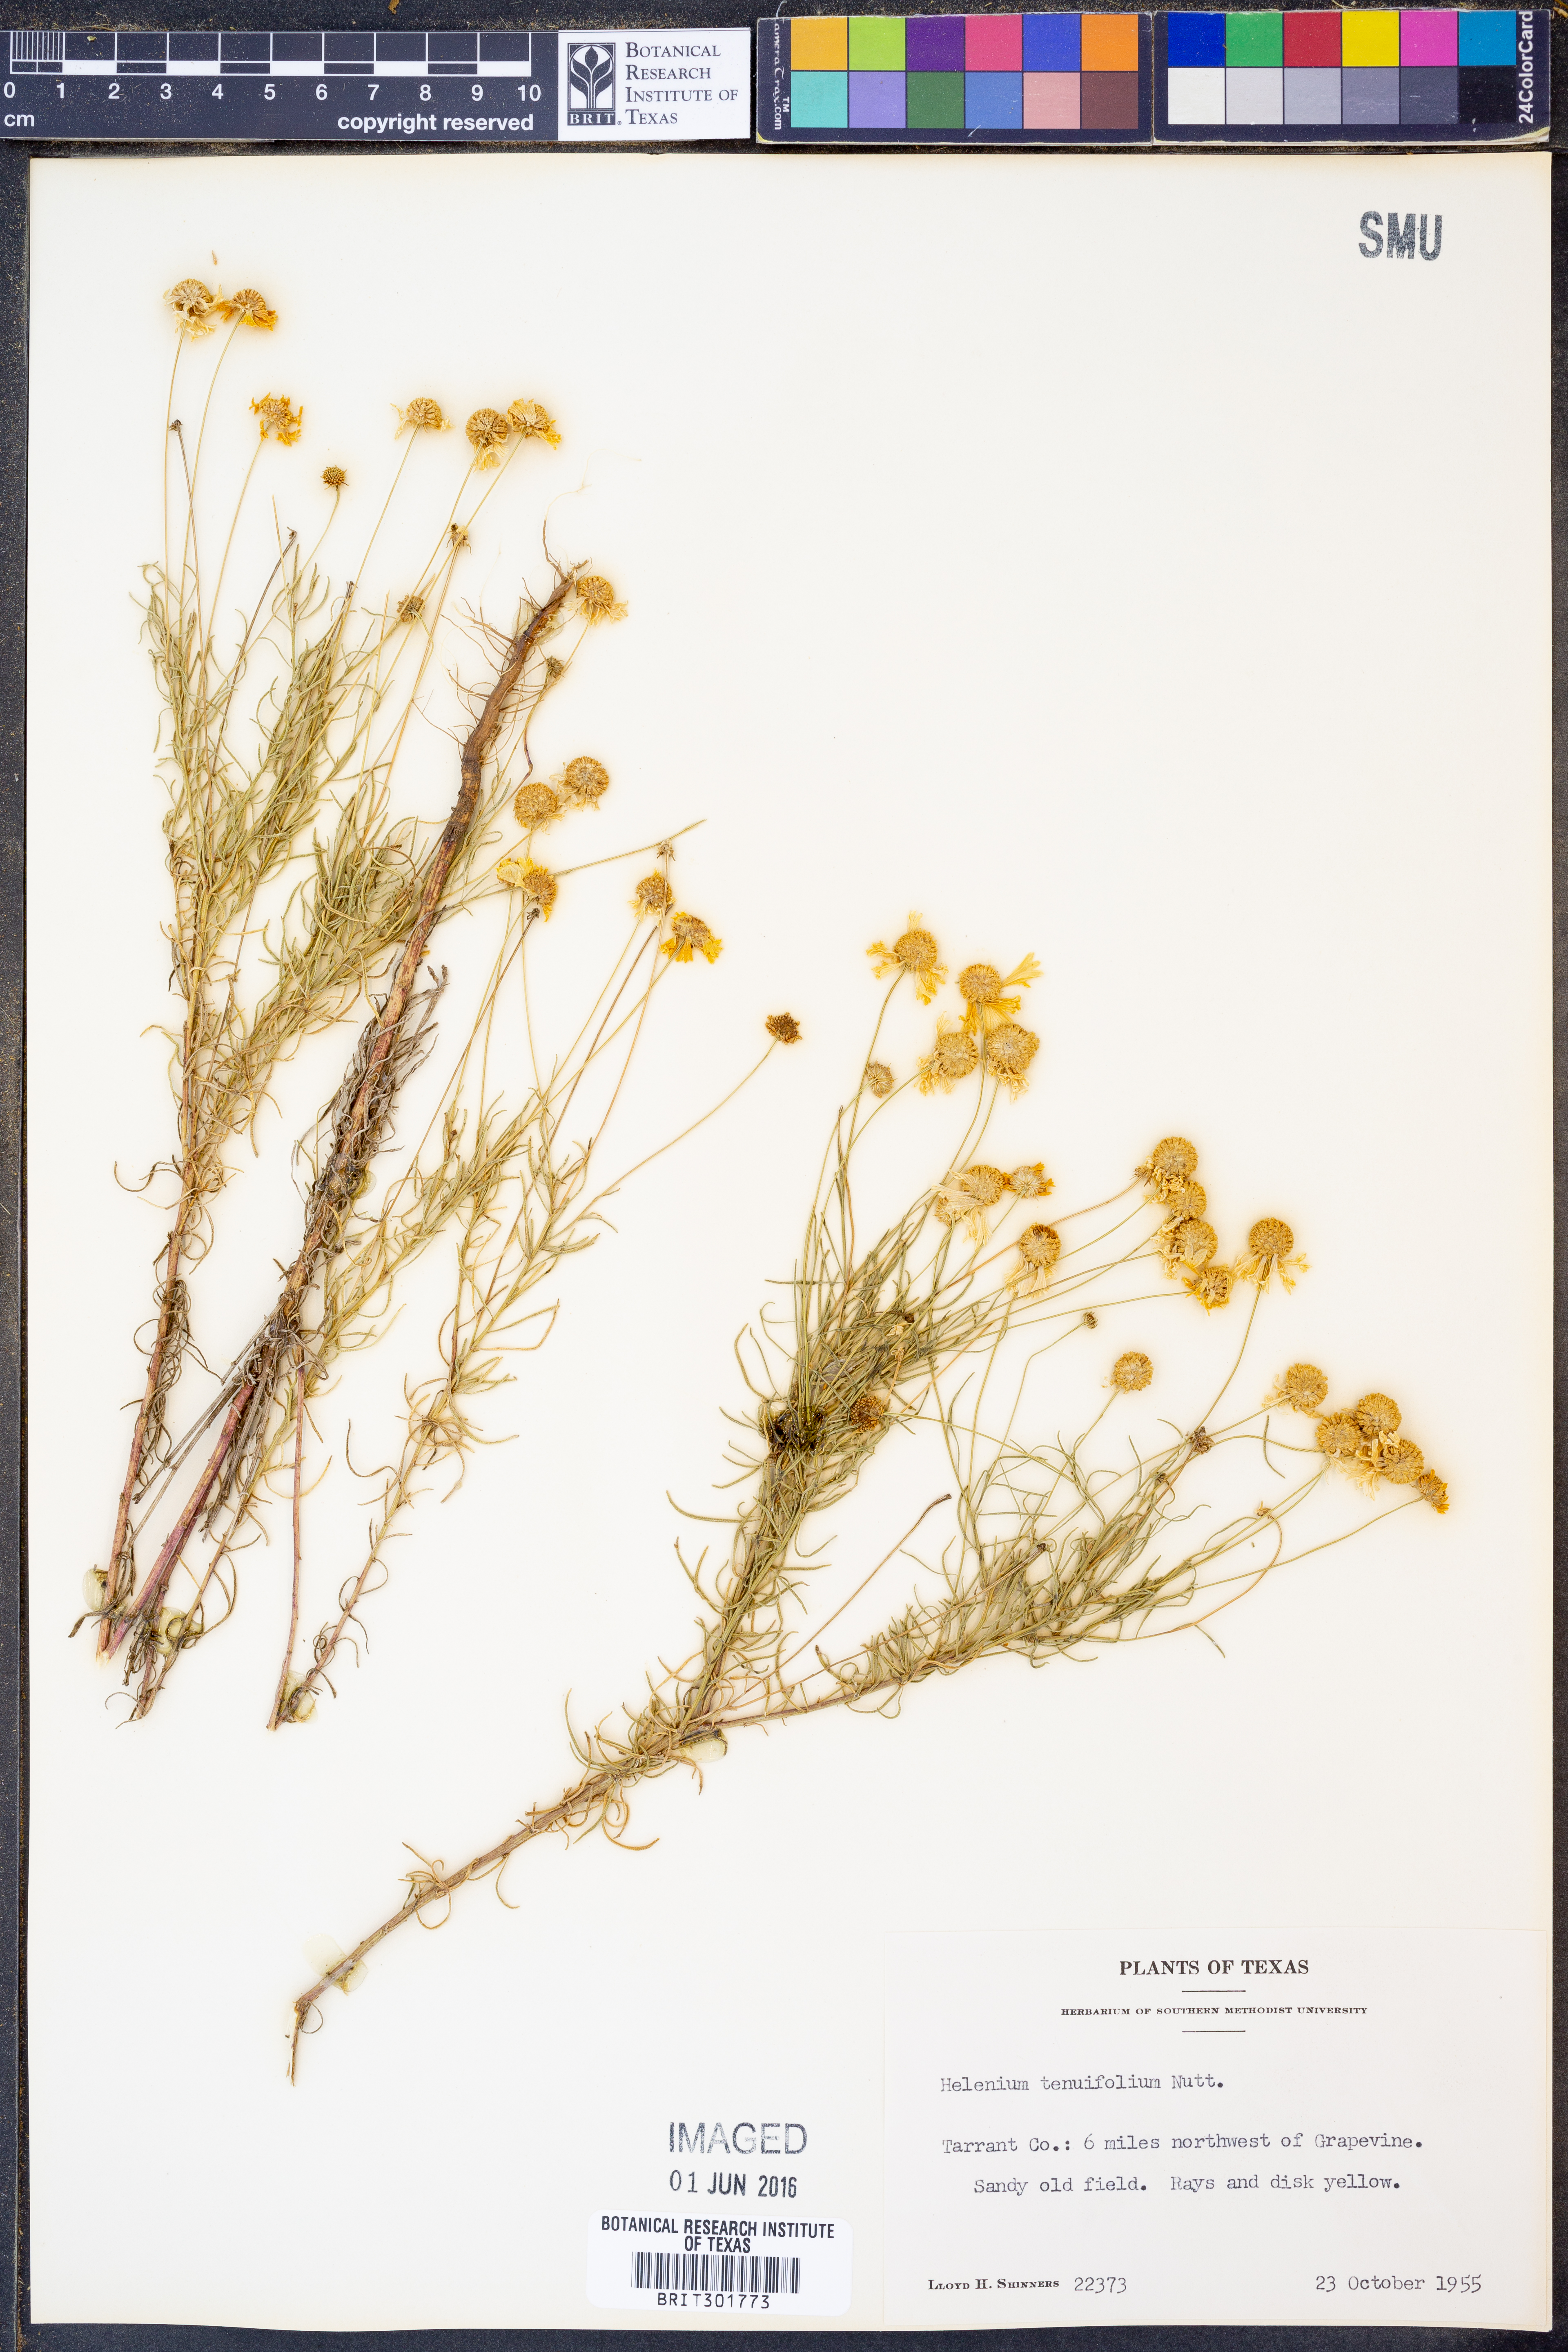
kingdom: Plantae
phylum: Tracheophyta
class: Magnoliopsida
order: Asterales
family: Asteraceae
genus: Helenium
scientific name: Helenium amarum
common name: Bitter sneezeweed
